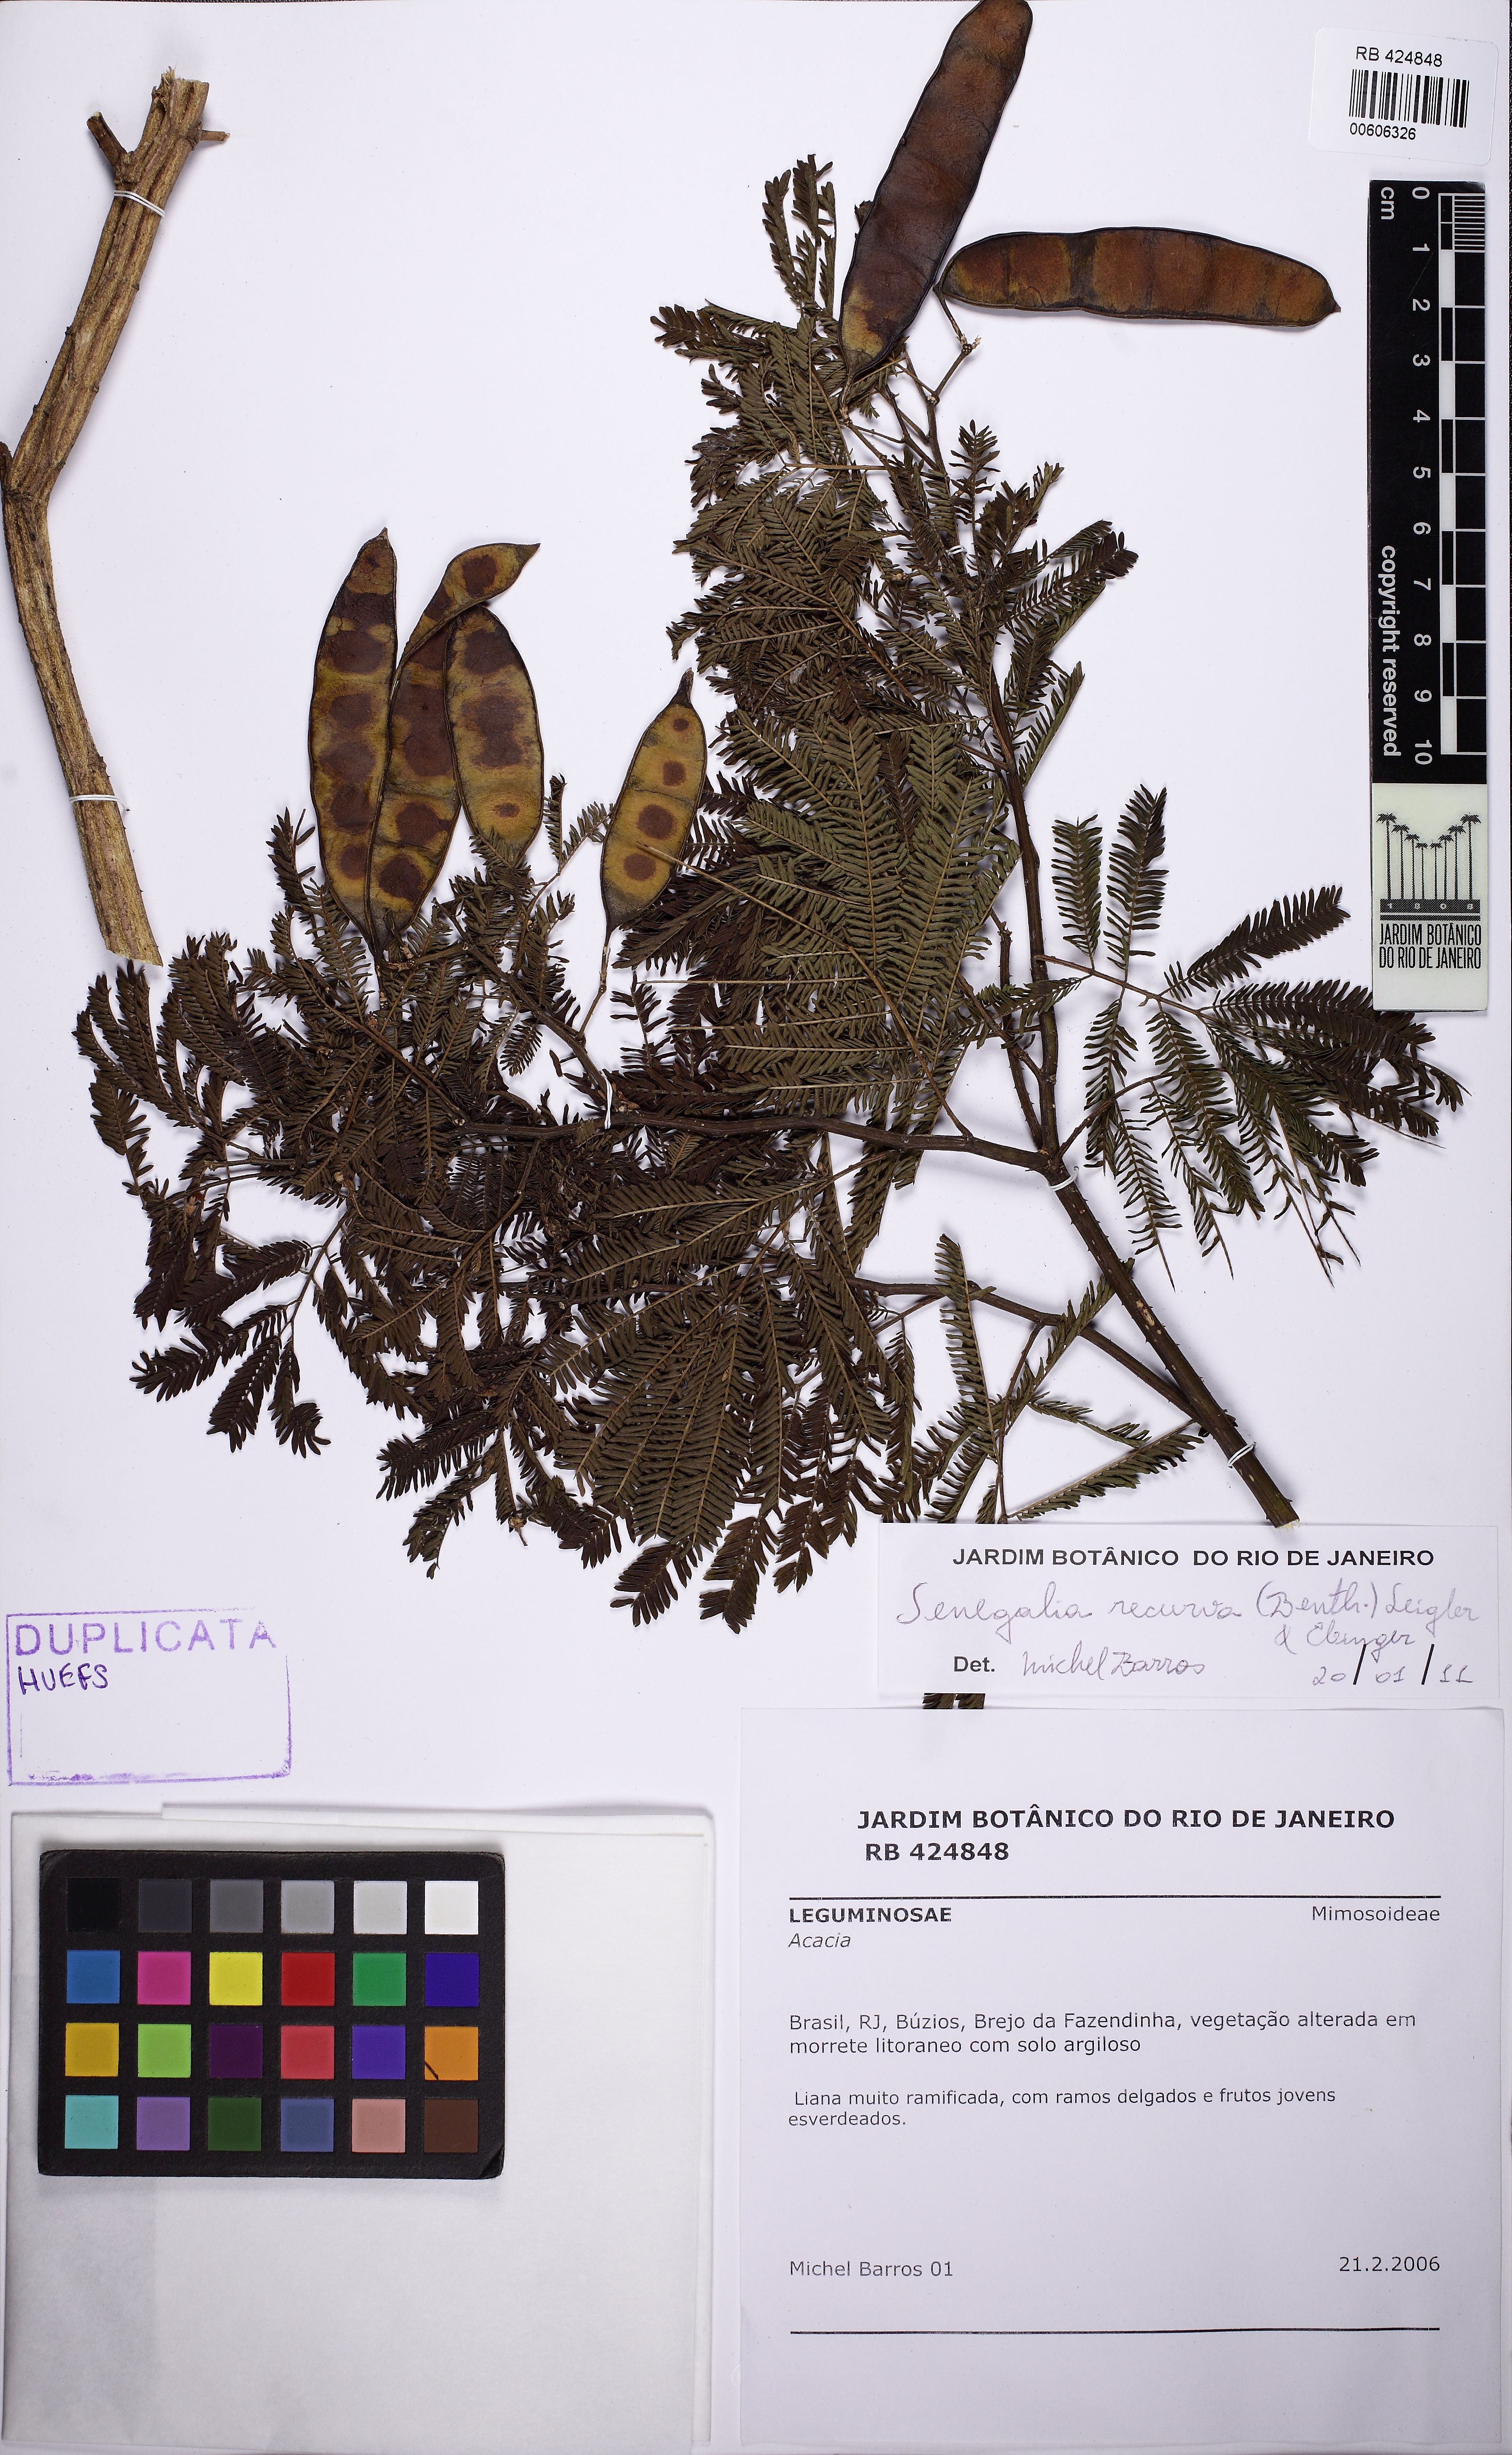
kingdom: Plantae
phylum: Tracheophyta
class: Magnoliopsida
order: Fabales
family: Fabaceae
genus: Senegalia
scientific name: Senegalia riparia
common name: Catch-and-keep
